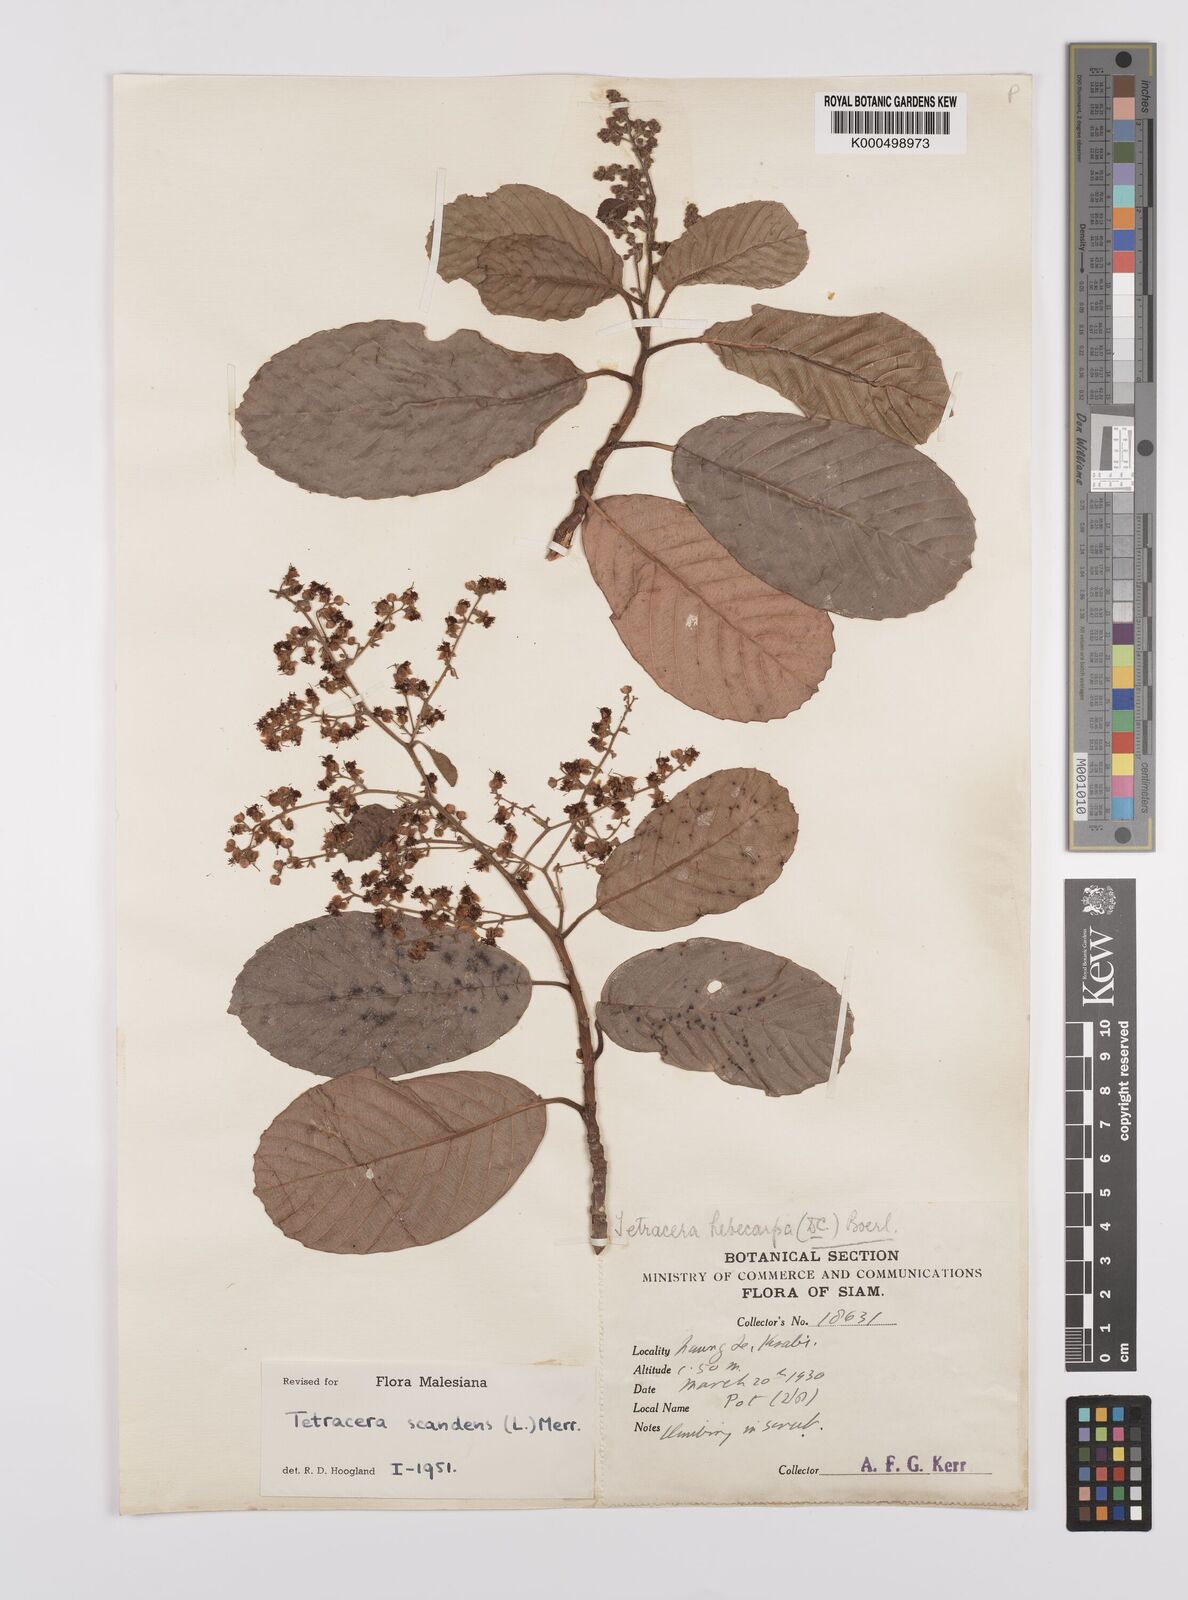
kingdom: Plantae
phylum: Tracheophyta
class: Magnoliopsida
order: Dilleniales
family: Dilleniaceae
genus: Tetracera
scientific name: Tetracera scandens
